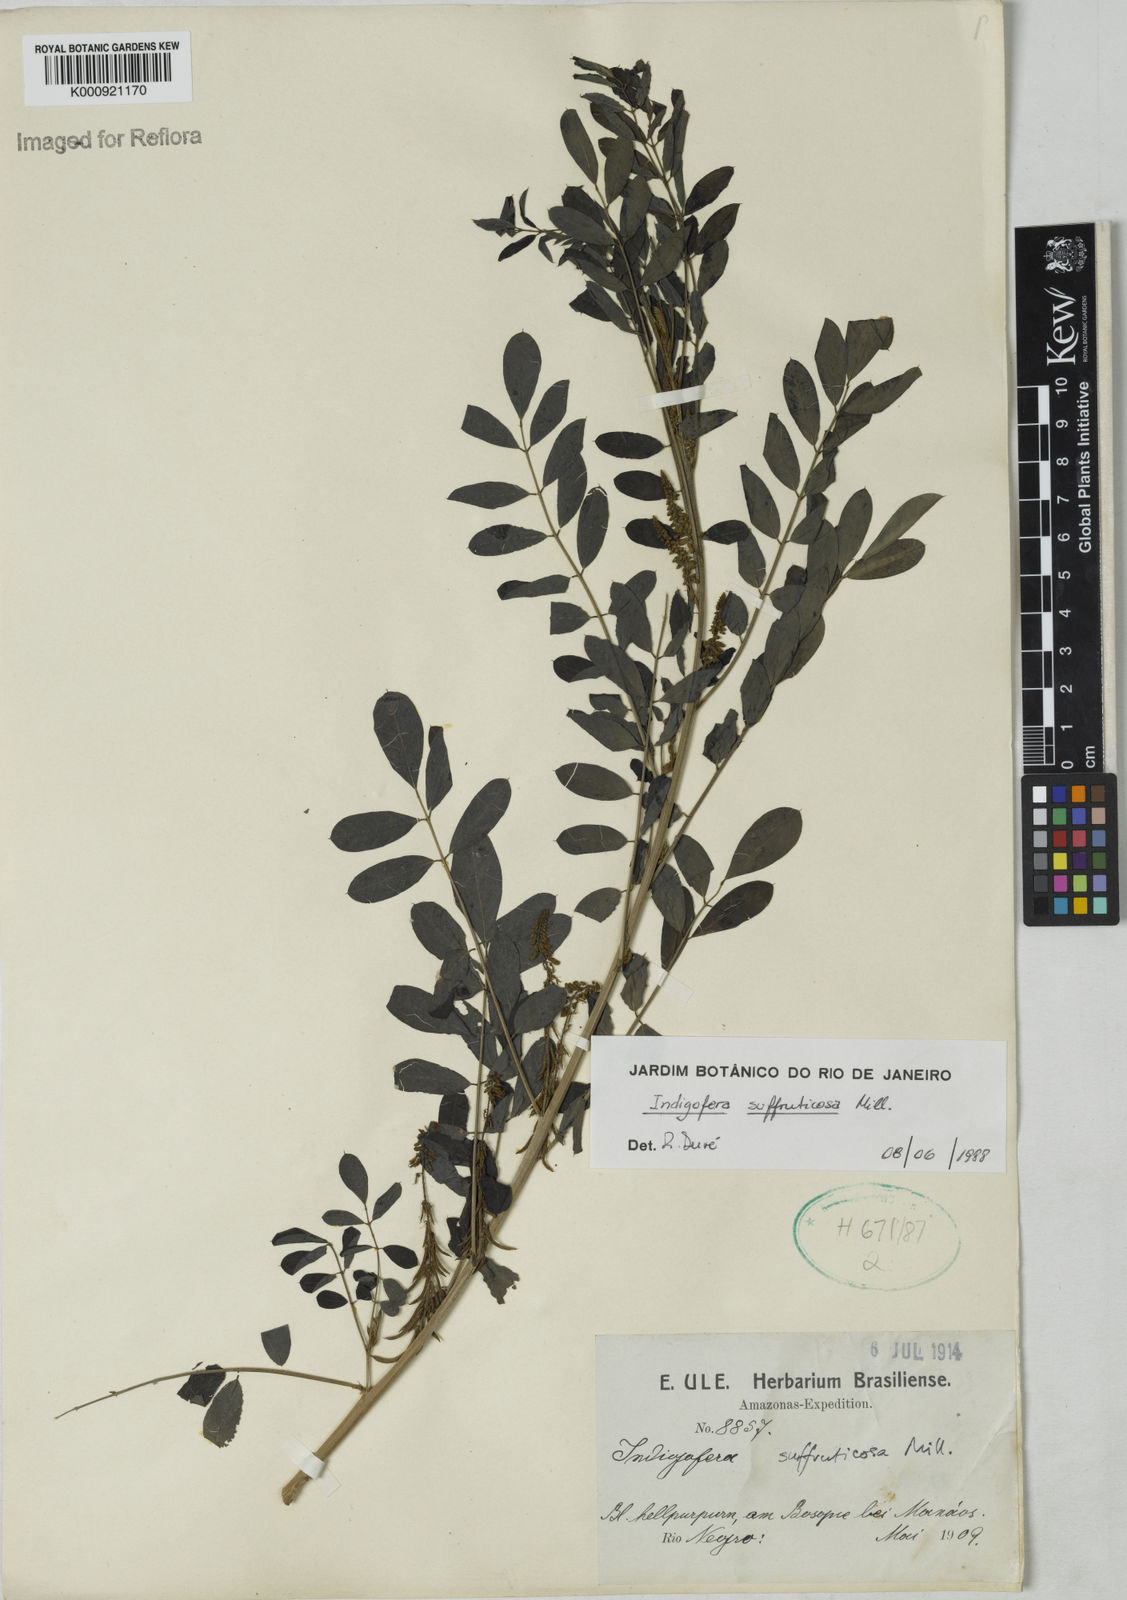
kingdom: Plantae
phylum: Tracheophyta
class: Magnoliopsida
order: Fabales
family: Fabaceae
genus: Indigofera
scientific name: Indigofera suffruticosa
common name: Anil de pasto
